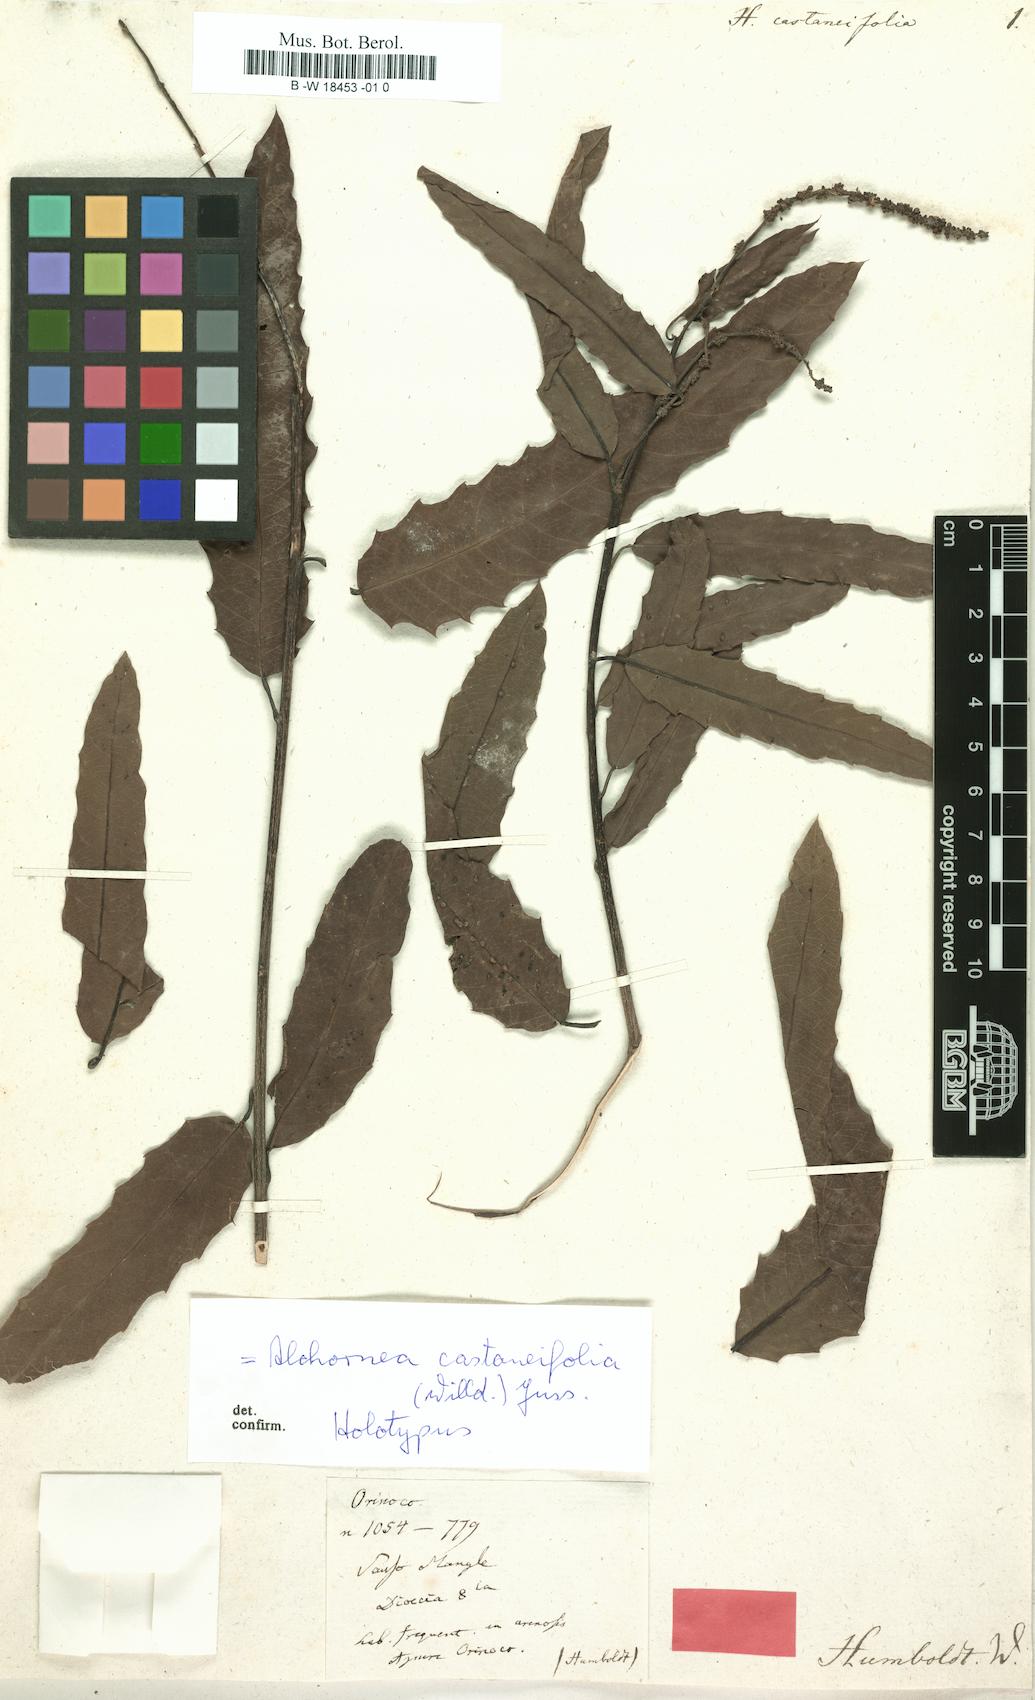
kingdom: Plantae
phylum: Tracheophyta
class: Magnoliopsida
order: Malpighiales
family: Euphorbiaceae
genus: Alchornea
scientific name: Alchornea castaneifolia
